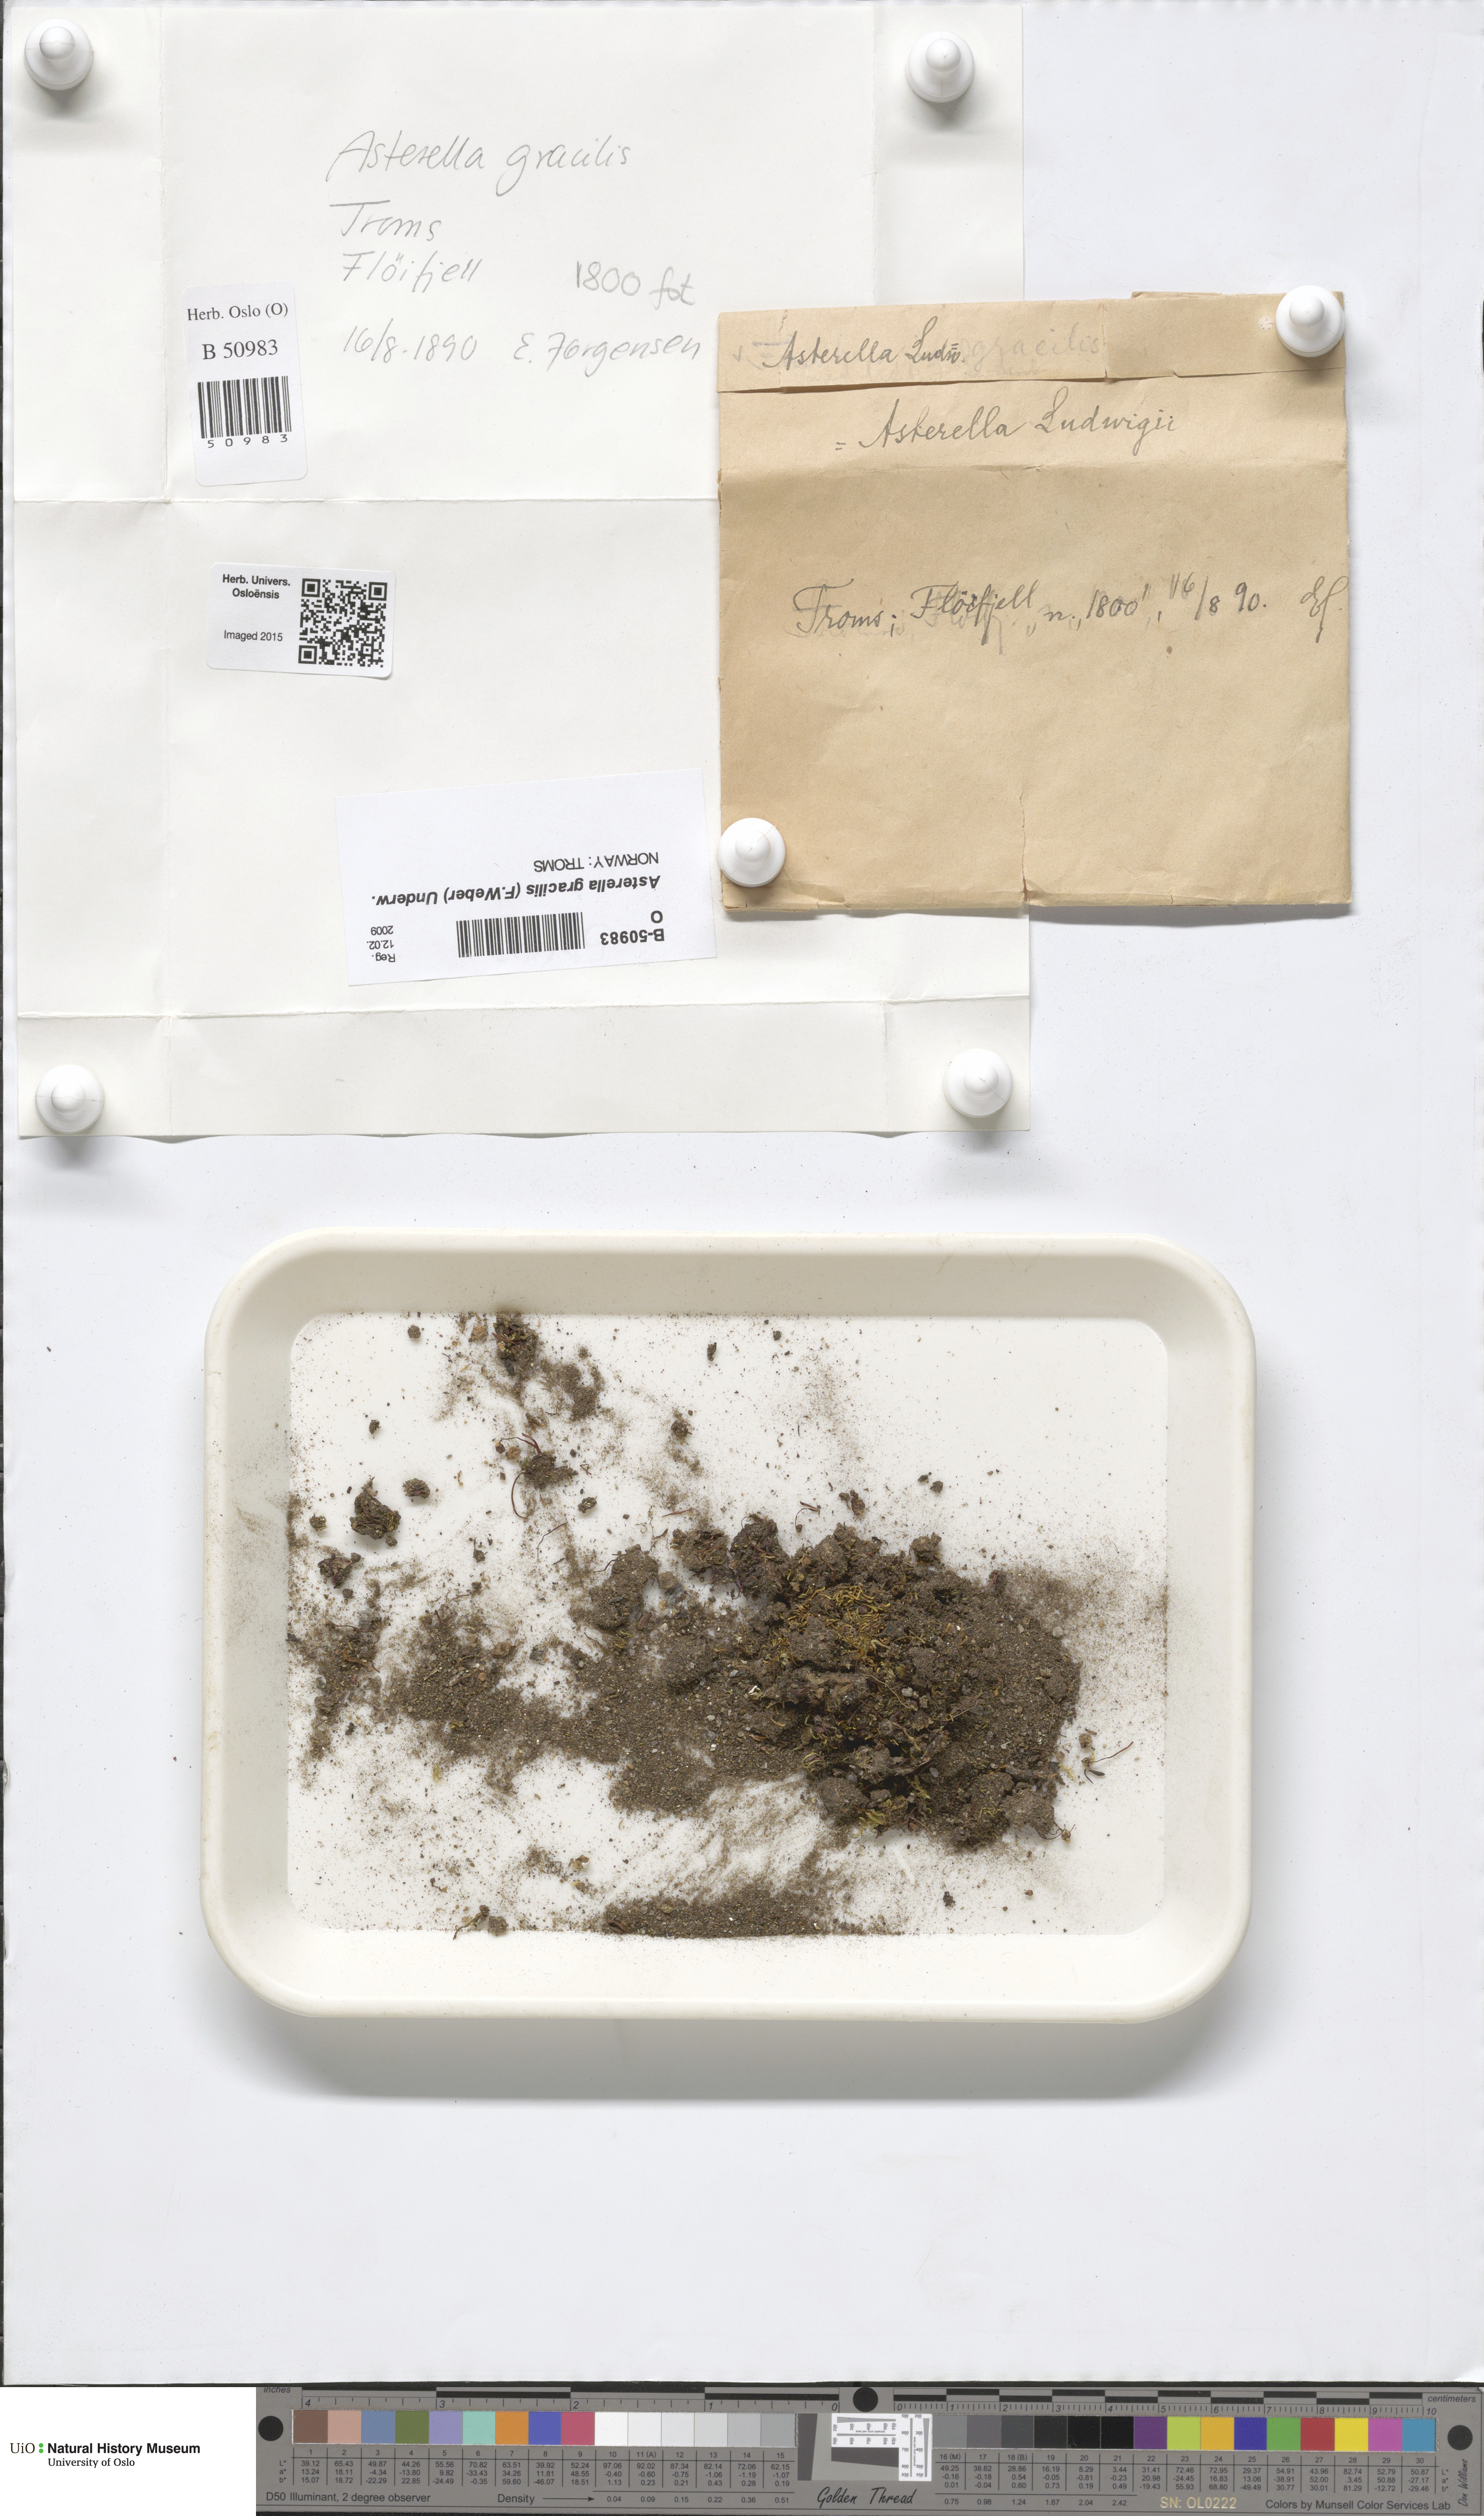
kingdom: Plantae
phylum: Marchantiophyta
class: Marchantiopsida
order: Marchantiales
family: Aytoniaceae
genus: Mannia
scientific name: Mannia gracilis
